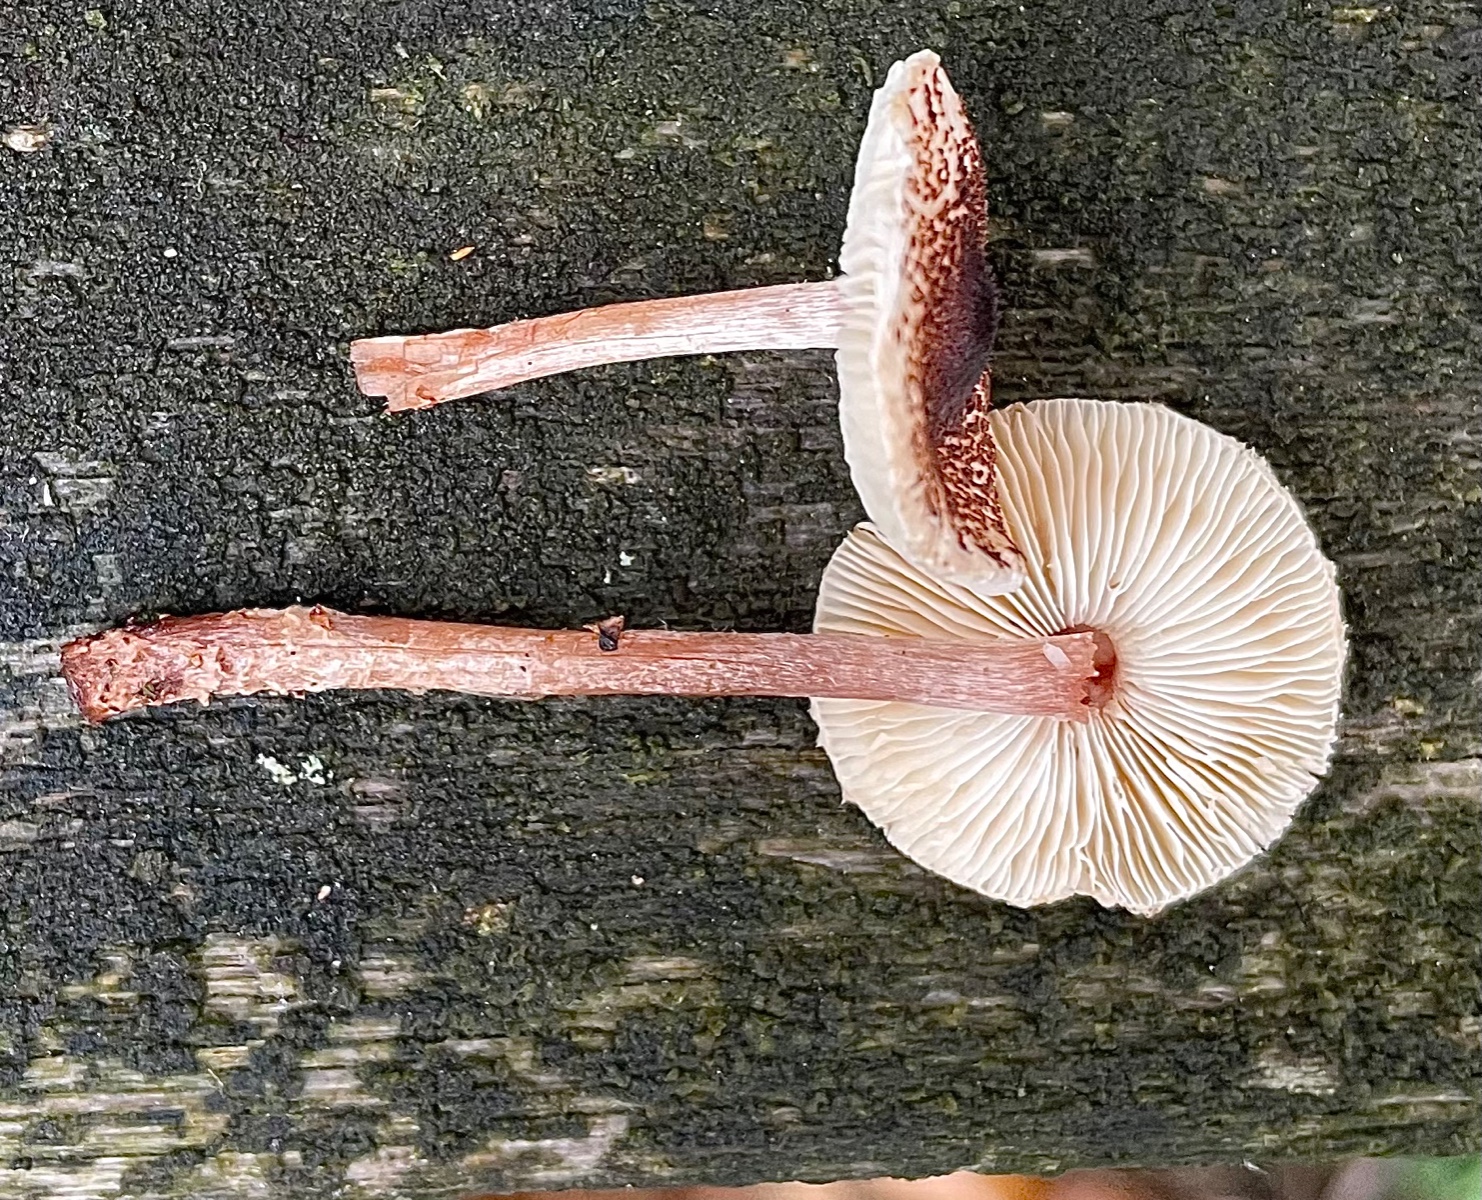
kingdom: Fungi
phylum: Basidiomycota
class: Agaricomycetes
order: Agaricales
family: Agaricaceae
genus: Lepiota
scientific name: Lepiota echinella
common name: finskællet parasolhat
